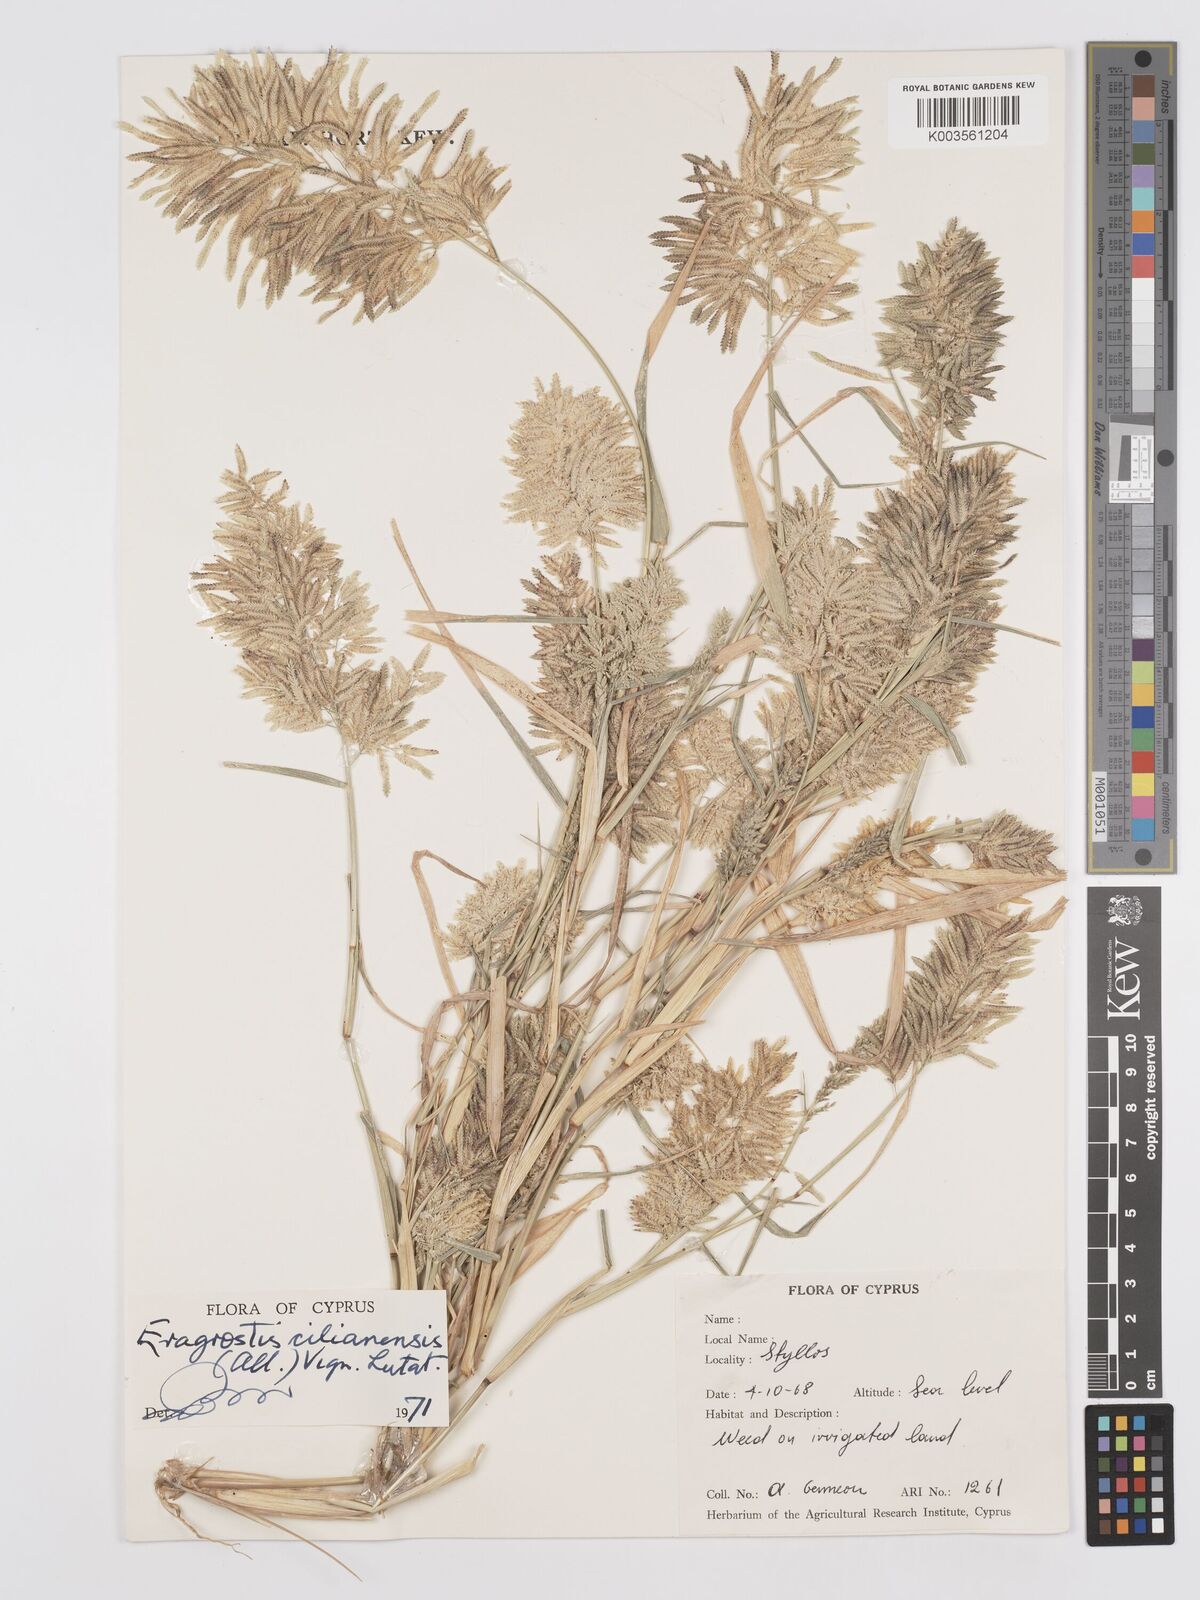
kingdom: Plantae
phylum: Tracheophyta
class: Liliopsida
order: Poales
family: Poaceae
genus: Eragrostis
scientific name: Eragrostis cilianensis
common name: Stinkgrass
